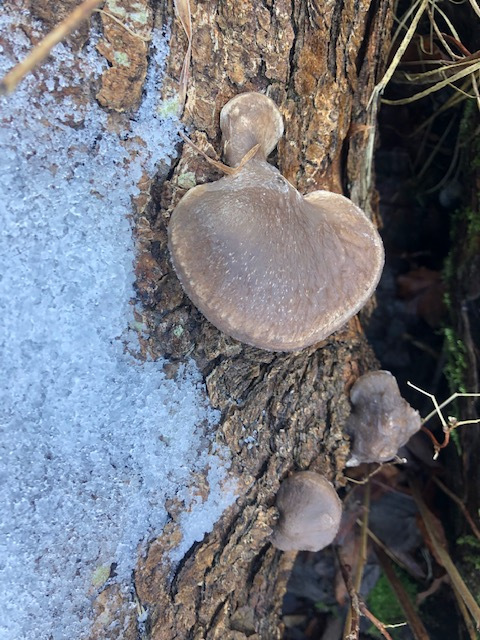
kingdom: Fungi
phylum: Basidiomycota
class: Agaricomycetes
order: Agaricales
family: Pleurotaceae
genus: Pleurotus
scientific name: Pleurotus ostreatus
